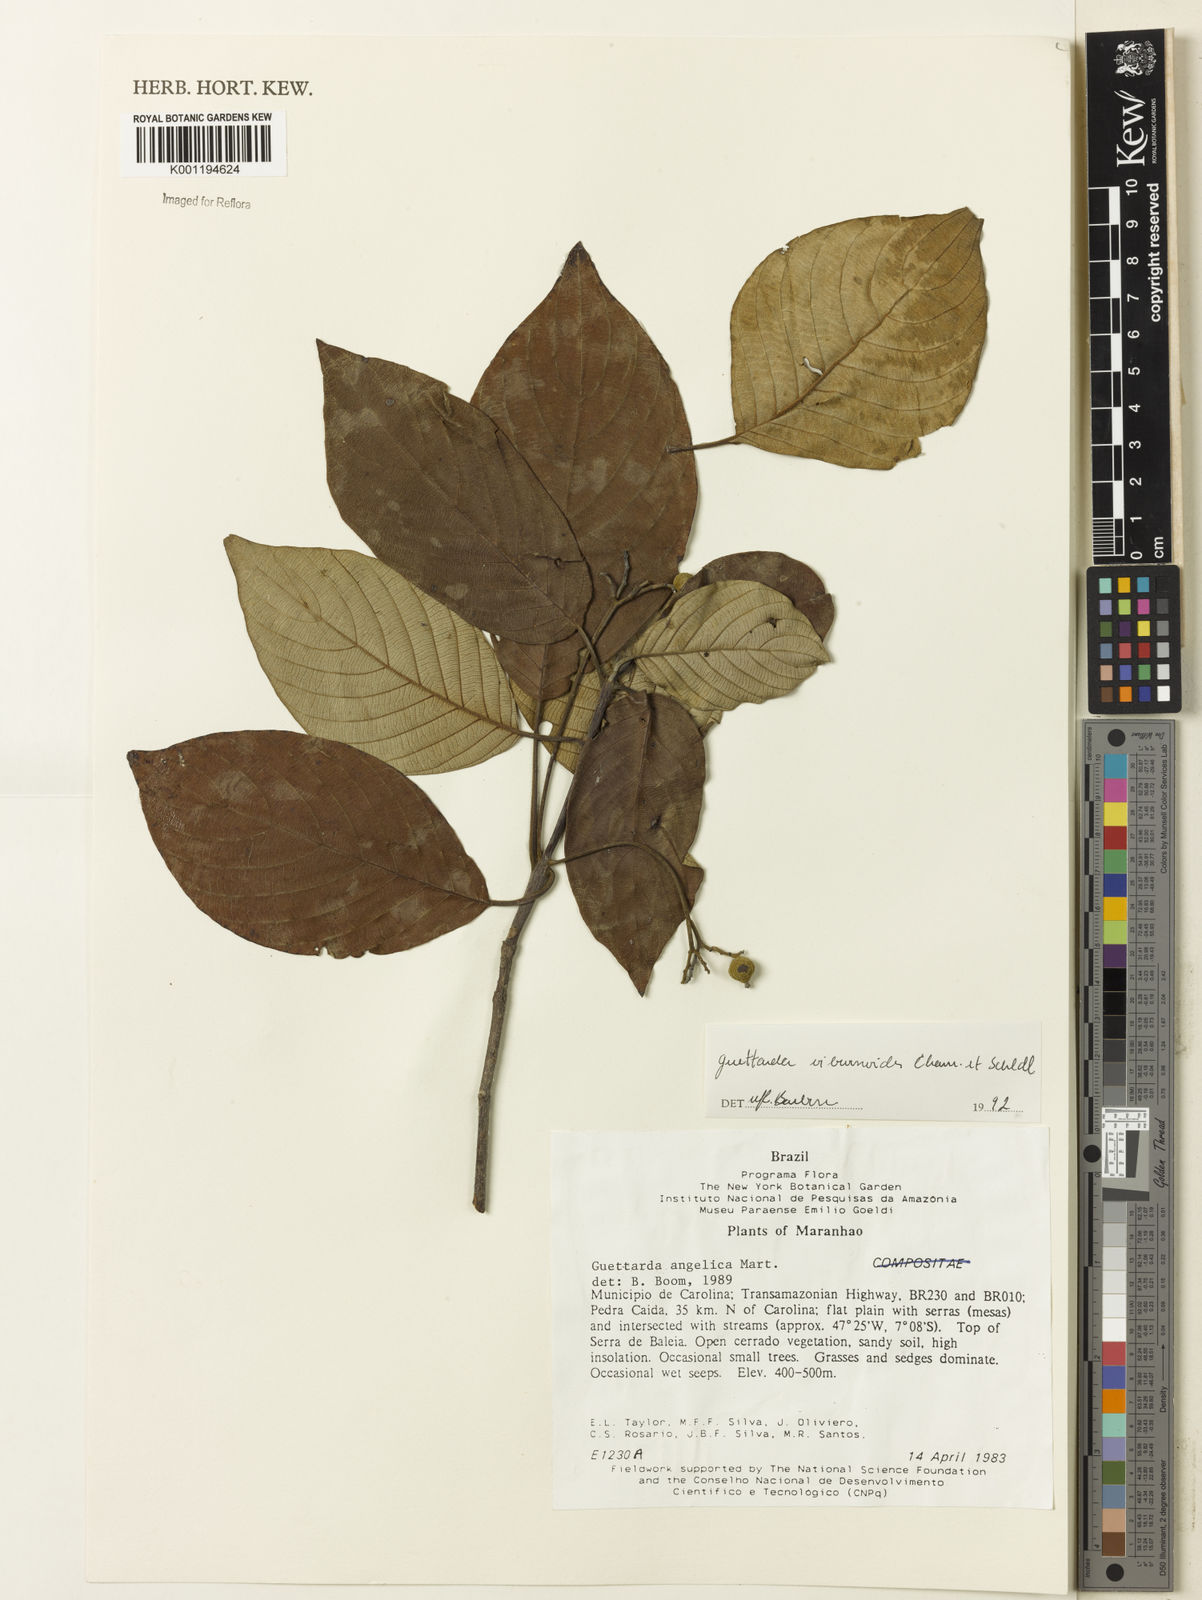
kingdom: Plantae
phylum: Tracheophyta
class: Magnoliopsida
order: Gentianales
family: Rubiaceae
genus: Guettarda
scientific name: Guettarda viburnoides
